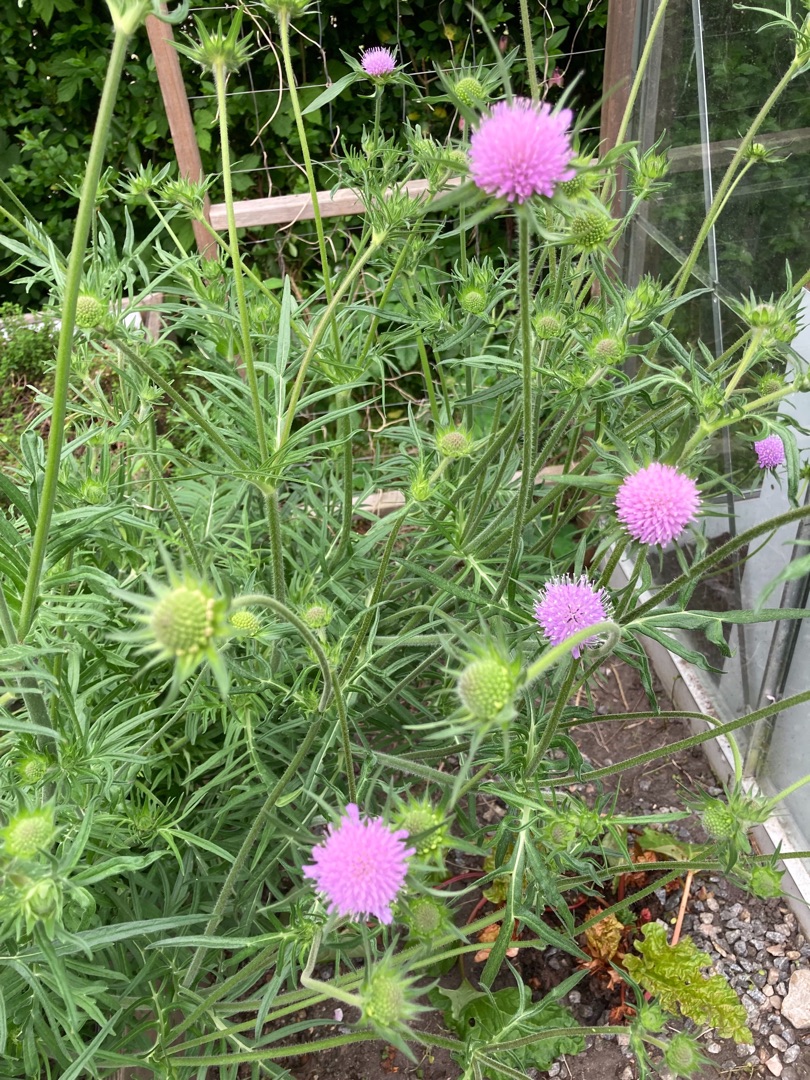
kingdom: Plantae
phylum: Tracheophyta
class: Magnoliopsida
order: Dipsacales
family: Caprifoliaceae
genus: Knautia
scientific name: Knautia arvensis
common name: Blåhat
